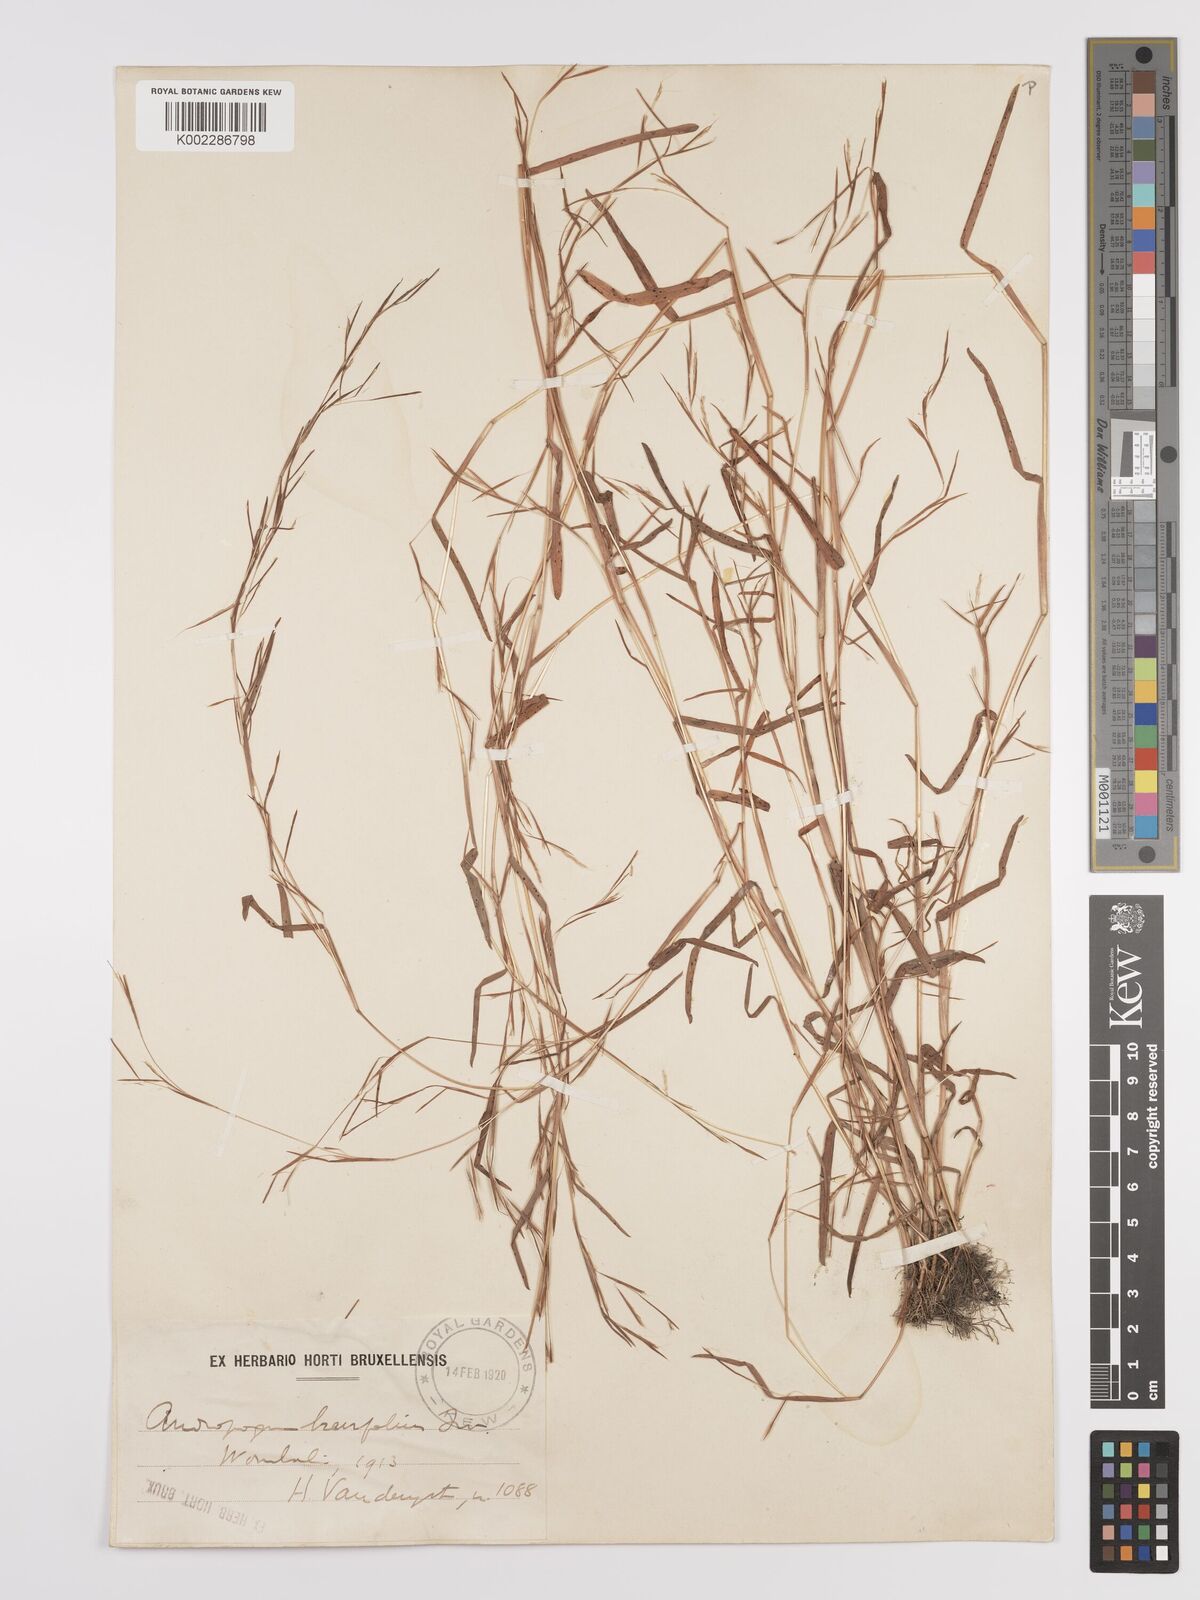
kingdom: Plantae
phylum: Tracheophyta
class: Liliopsida
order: Poales
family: Poaceae
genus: Schizachyrium
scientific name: Schizachyrium brevifolium
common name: Serillo dulce
